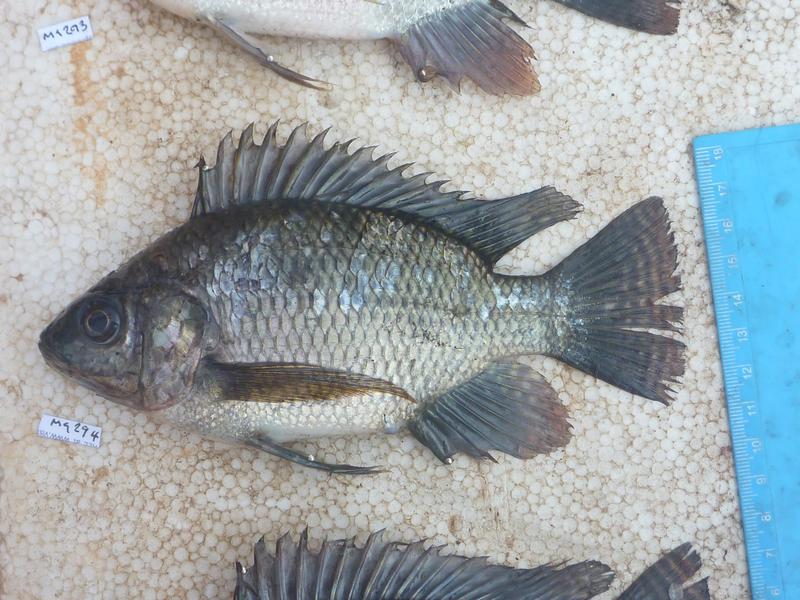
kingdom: Animalia
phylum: Chordata
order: Perciformes
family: Cichlidae
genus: Oreochromis
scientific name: Oreochromis niloticus
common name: Nile tilapia
